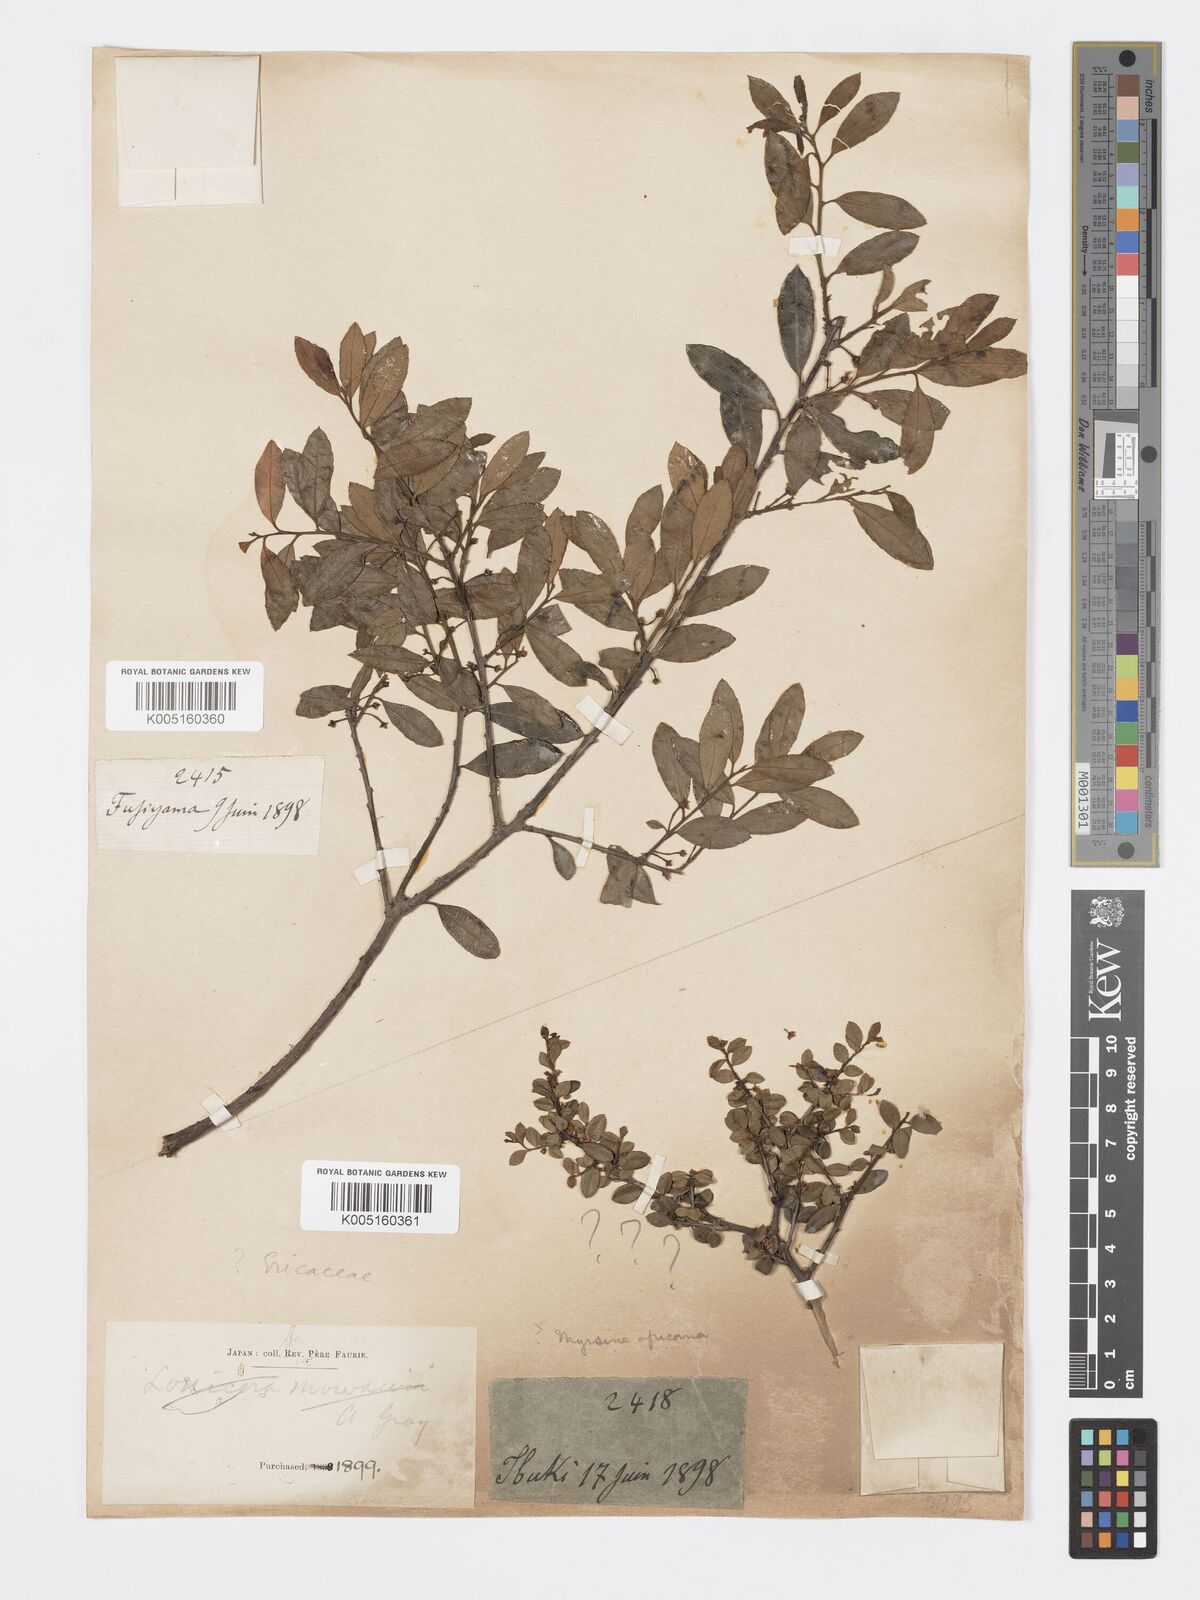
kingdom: Plantae
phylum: Tracheophyta
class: Magnoliopsida
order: Celastrales
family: Celastraceae
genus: Euonymus
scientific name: Euonymus
